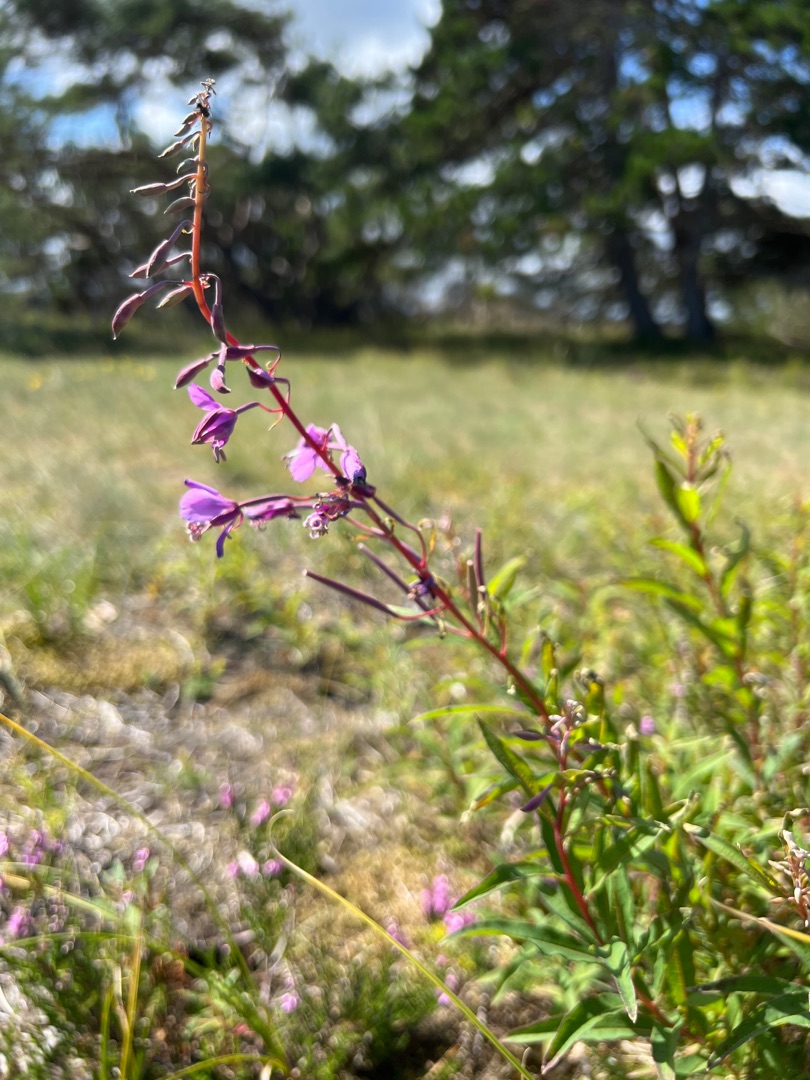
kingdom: Plantae
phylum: Tracheophyta
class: Magnoliopsida
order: Myrtales
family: Onagraceae
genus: Chamaenerion
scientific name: Chamaenerion angustifolium
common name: Gederams
